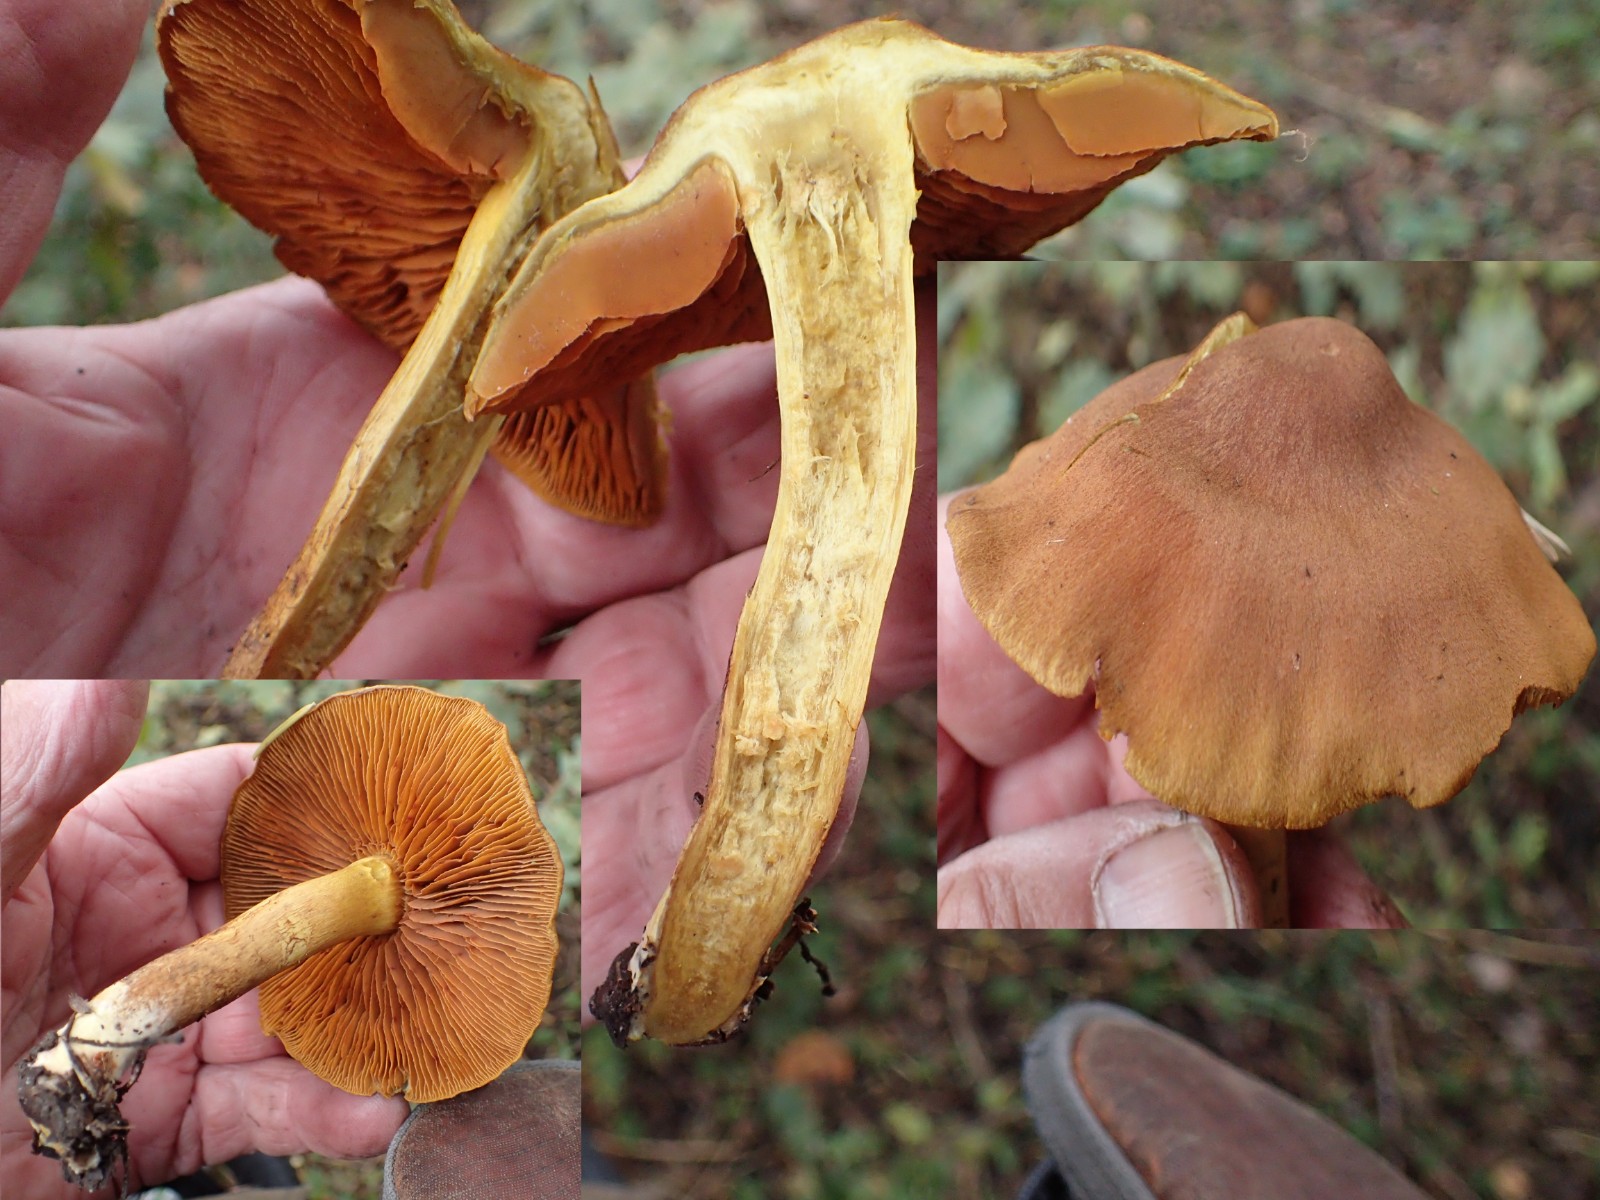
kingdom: Fungi
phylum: Basidiomycota
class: Agaricomycetes
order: Agaricales
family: Cortinariaceae
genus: Cortinarius
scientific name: Cortinarius malicorius
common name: grønkødet slørhat
